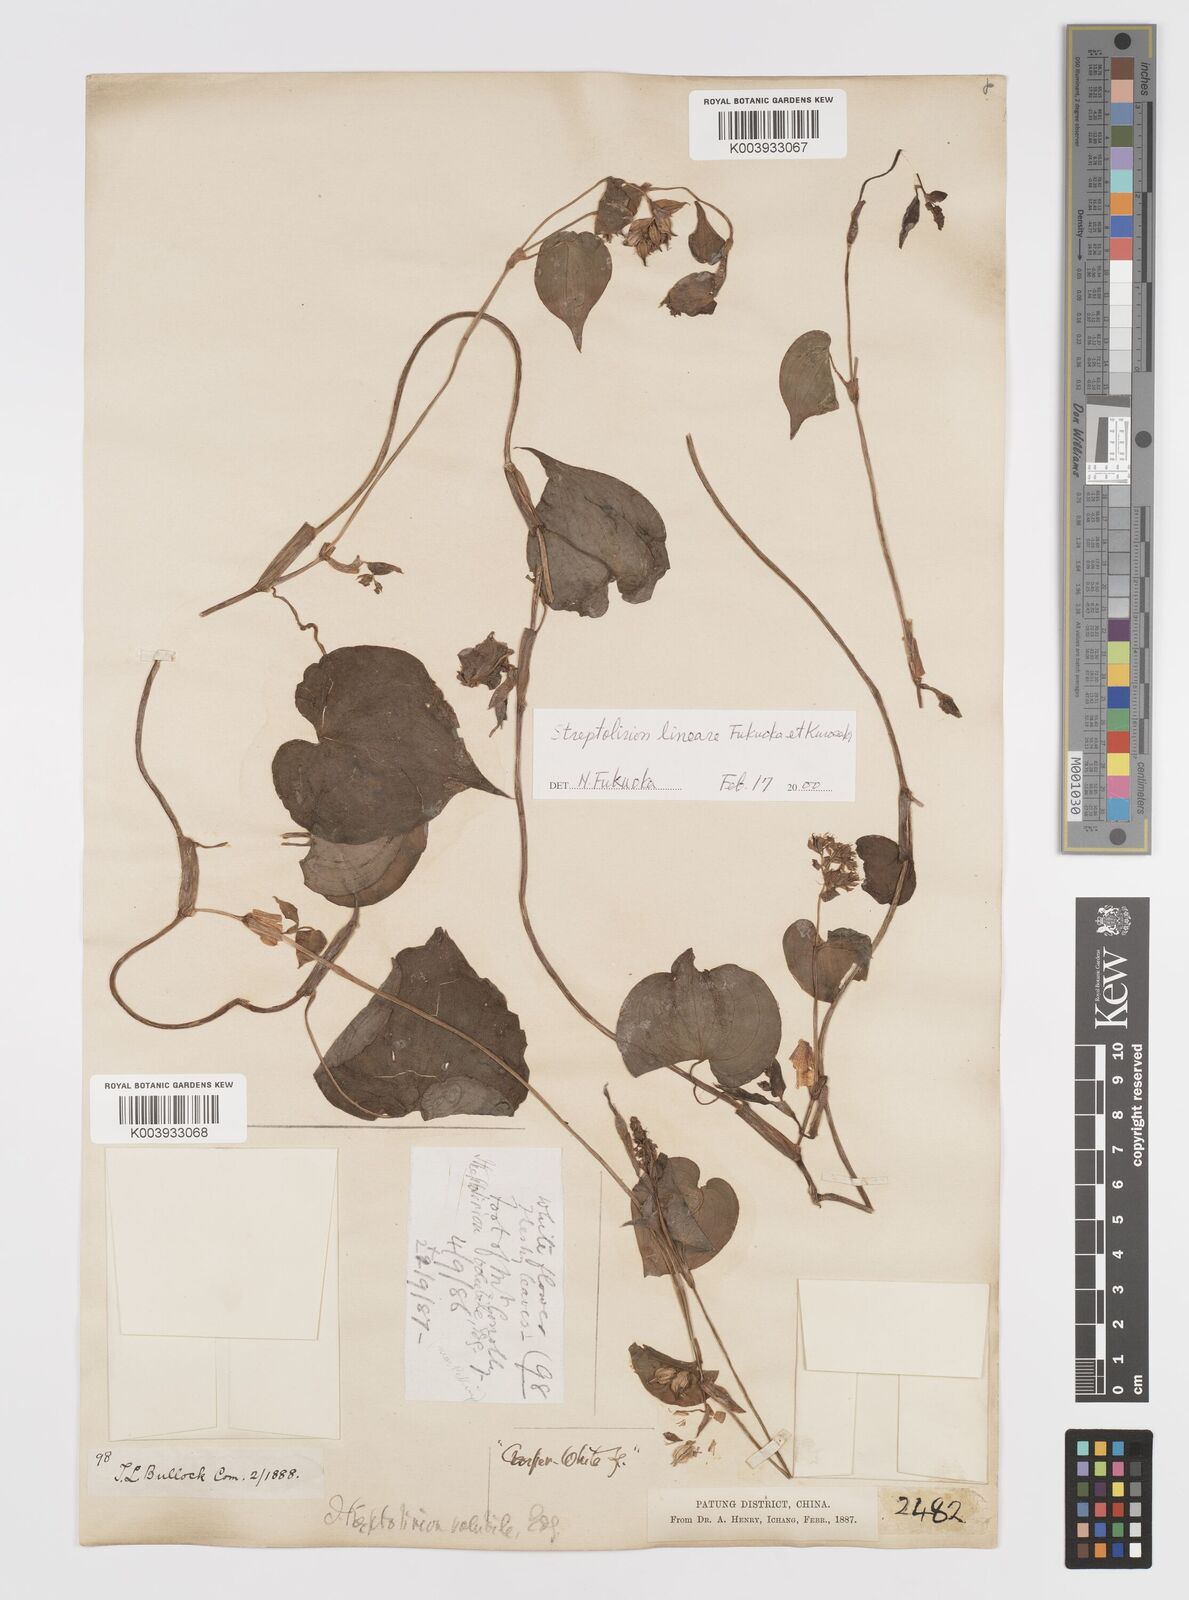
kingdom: Plantae
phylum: Tracheophyta
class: Liliopsida
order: Commelinales
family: Commelinaceae
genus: Streptolirion
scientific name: Streptolirion lineare
